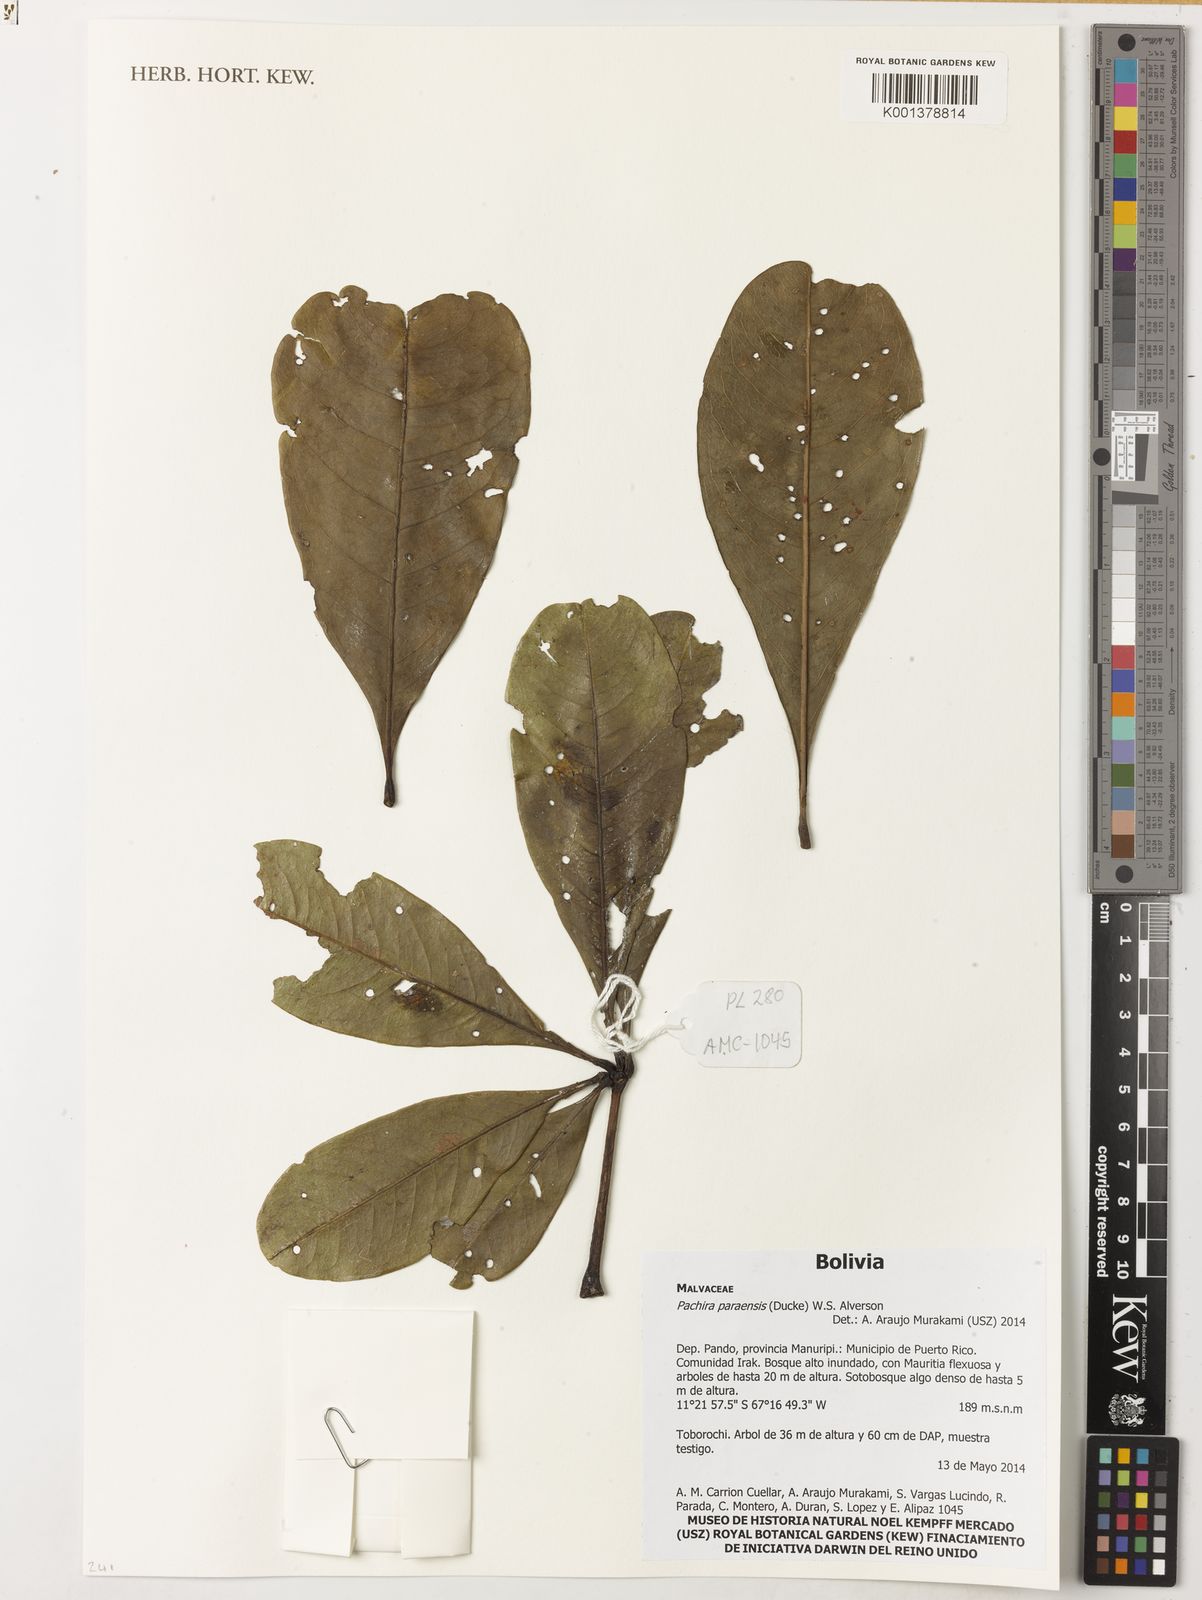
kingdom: Plantae
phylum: Tracheophyta
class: Magnoliopsida
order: Malvales
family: Malvaceae
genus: Pachira
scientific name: Pachira paraensis
